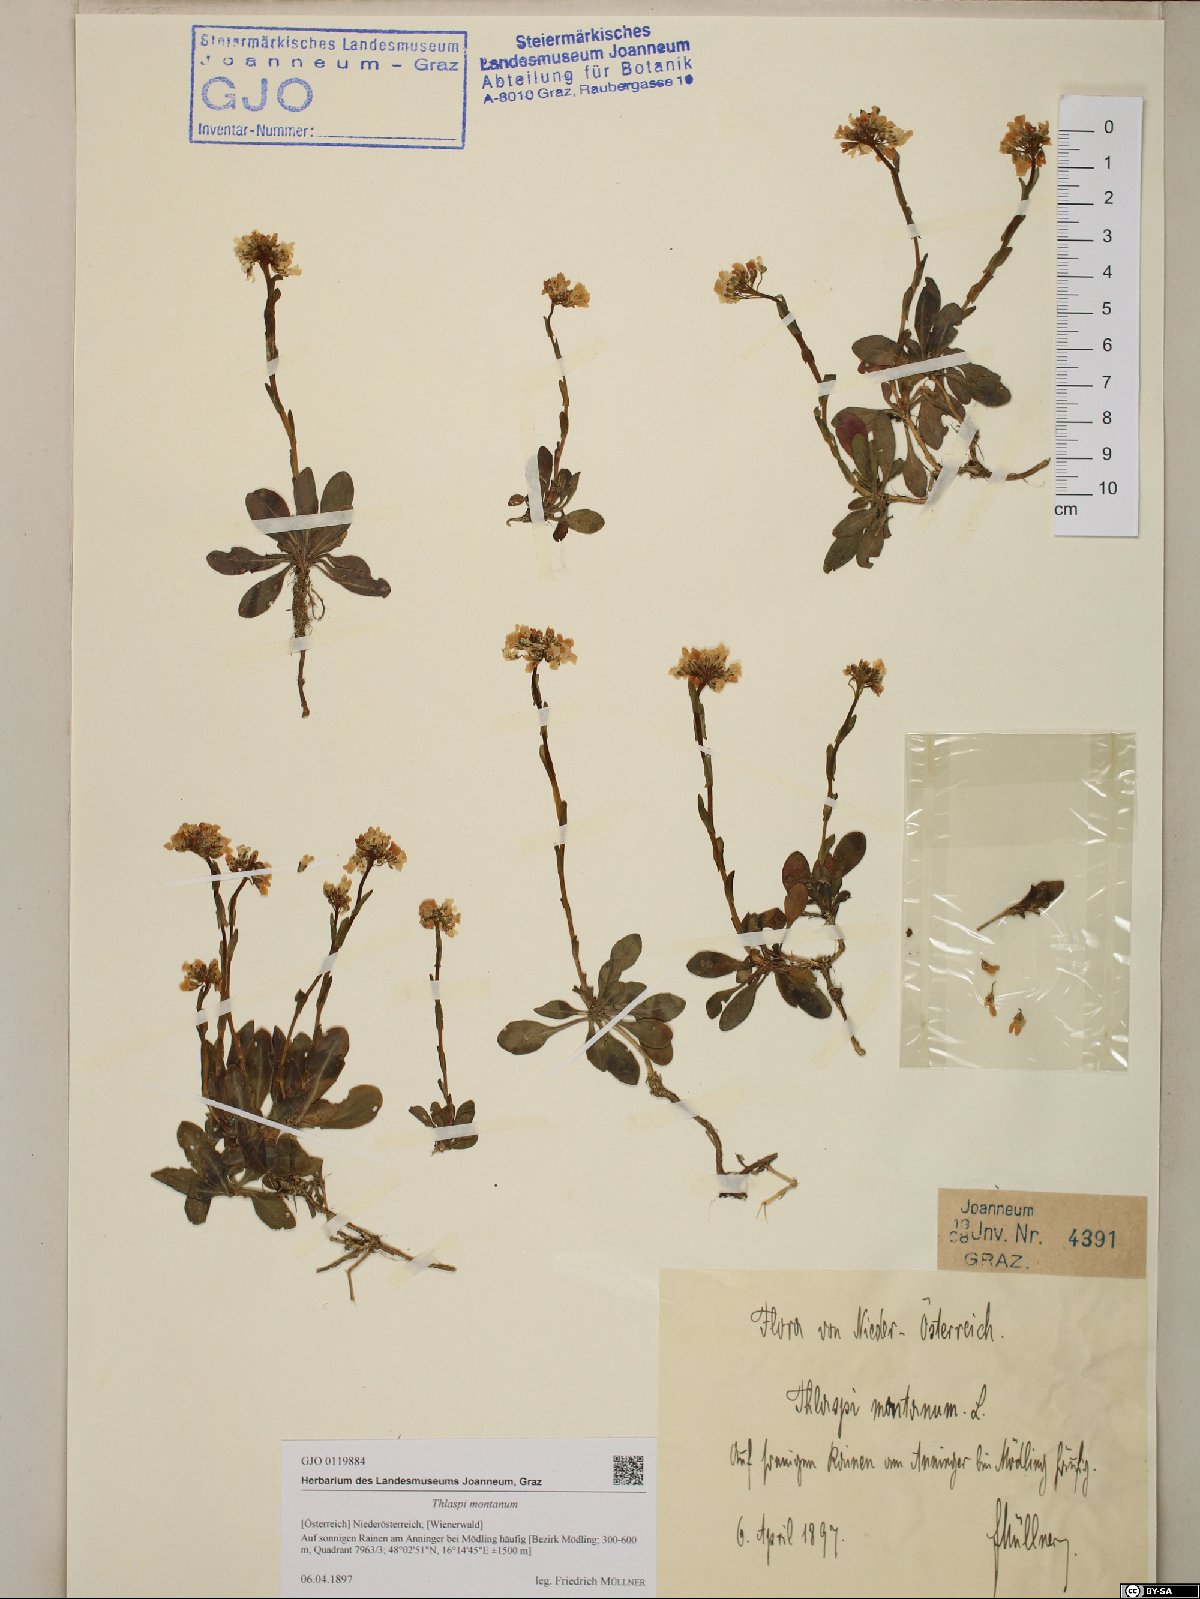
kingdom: Plantae
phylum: Tracheophyta
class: Magnoliopsida
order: Brassicales
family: Brassicaceae
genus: Noccaea
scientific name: Noccaea montana
